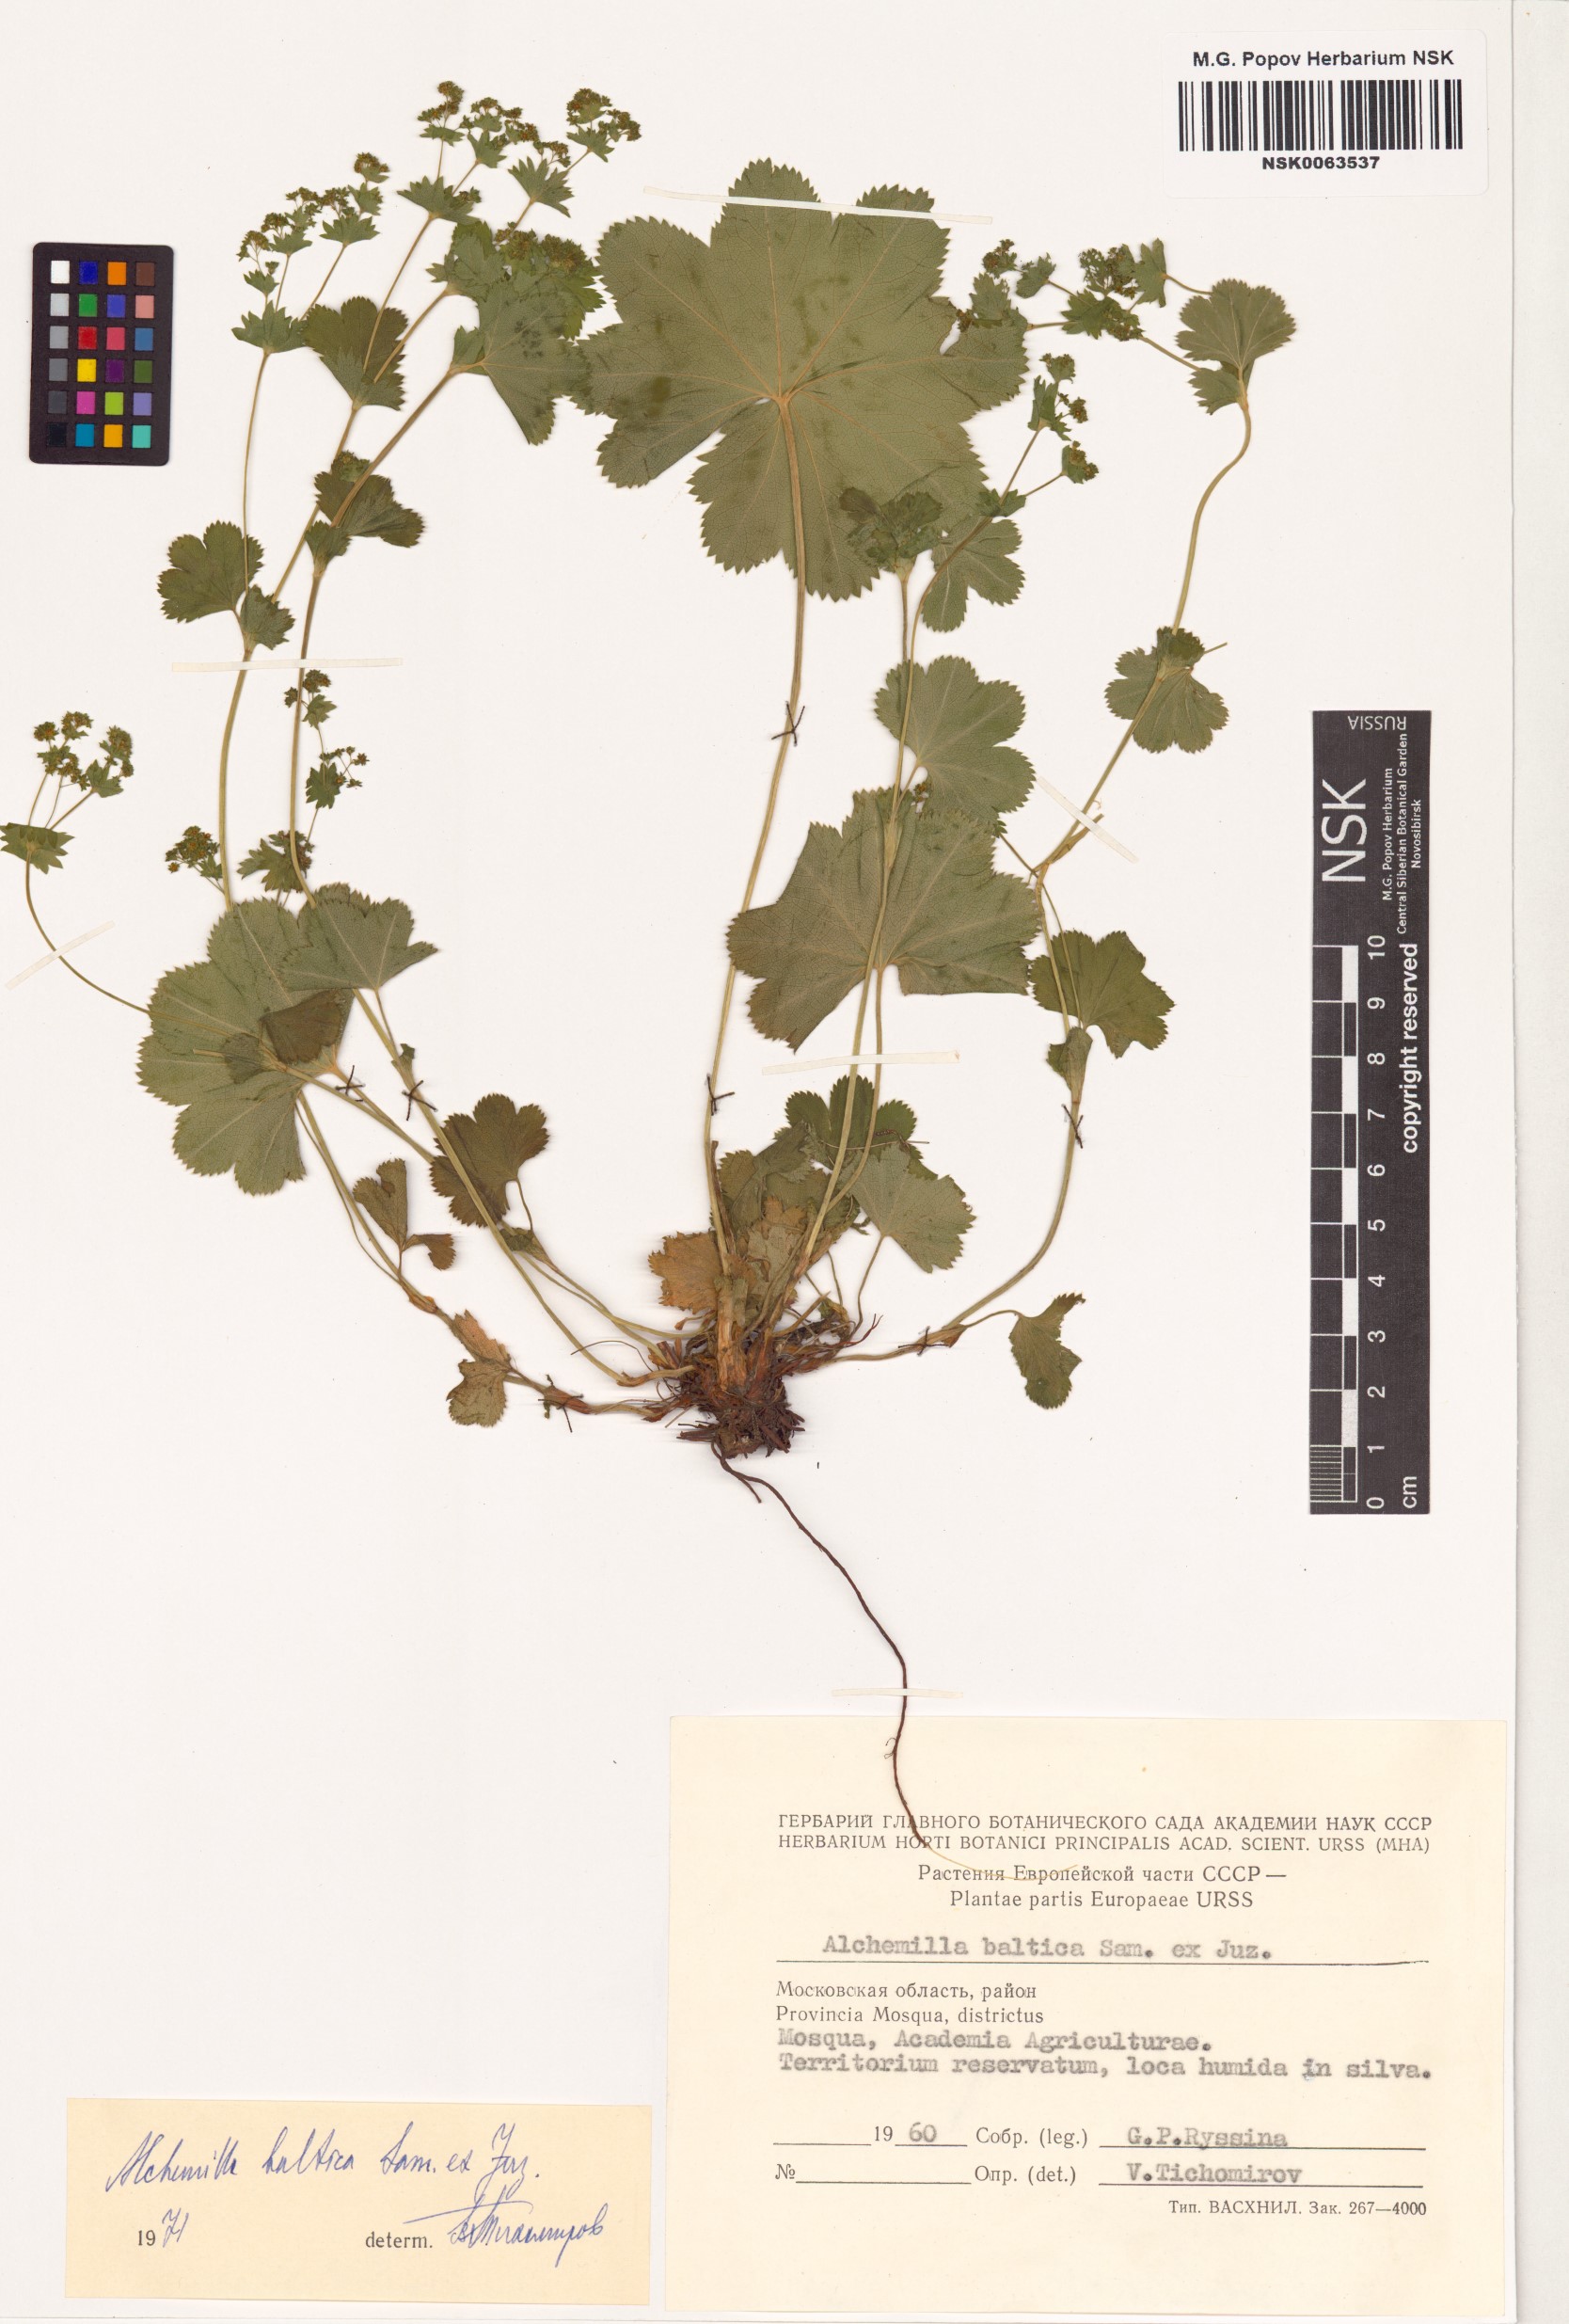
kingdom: Plantae
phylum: Tracheophyta
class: Magnoliopsida
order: Rosales
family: Rosaceae
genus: Alchemilla
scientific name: Alchemilla baltica
